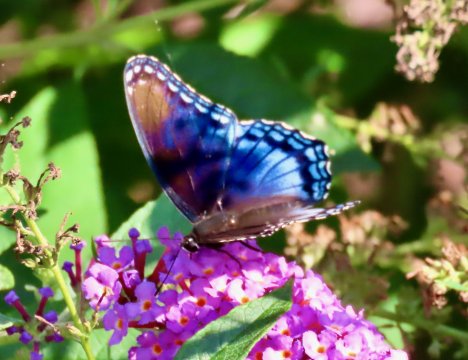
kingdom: Animalia
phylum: Arthropoda
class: Insecta
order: Lepidoptera
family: Nymphalidae
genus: Limenitis
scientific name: Limenitis arthemis
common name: Red-spotted Admiral
